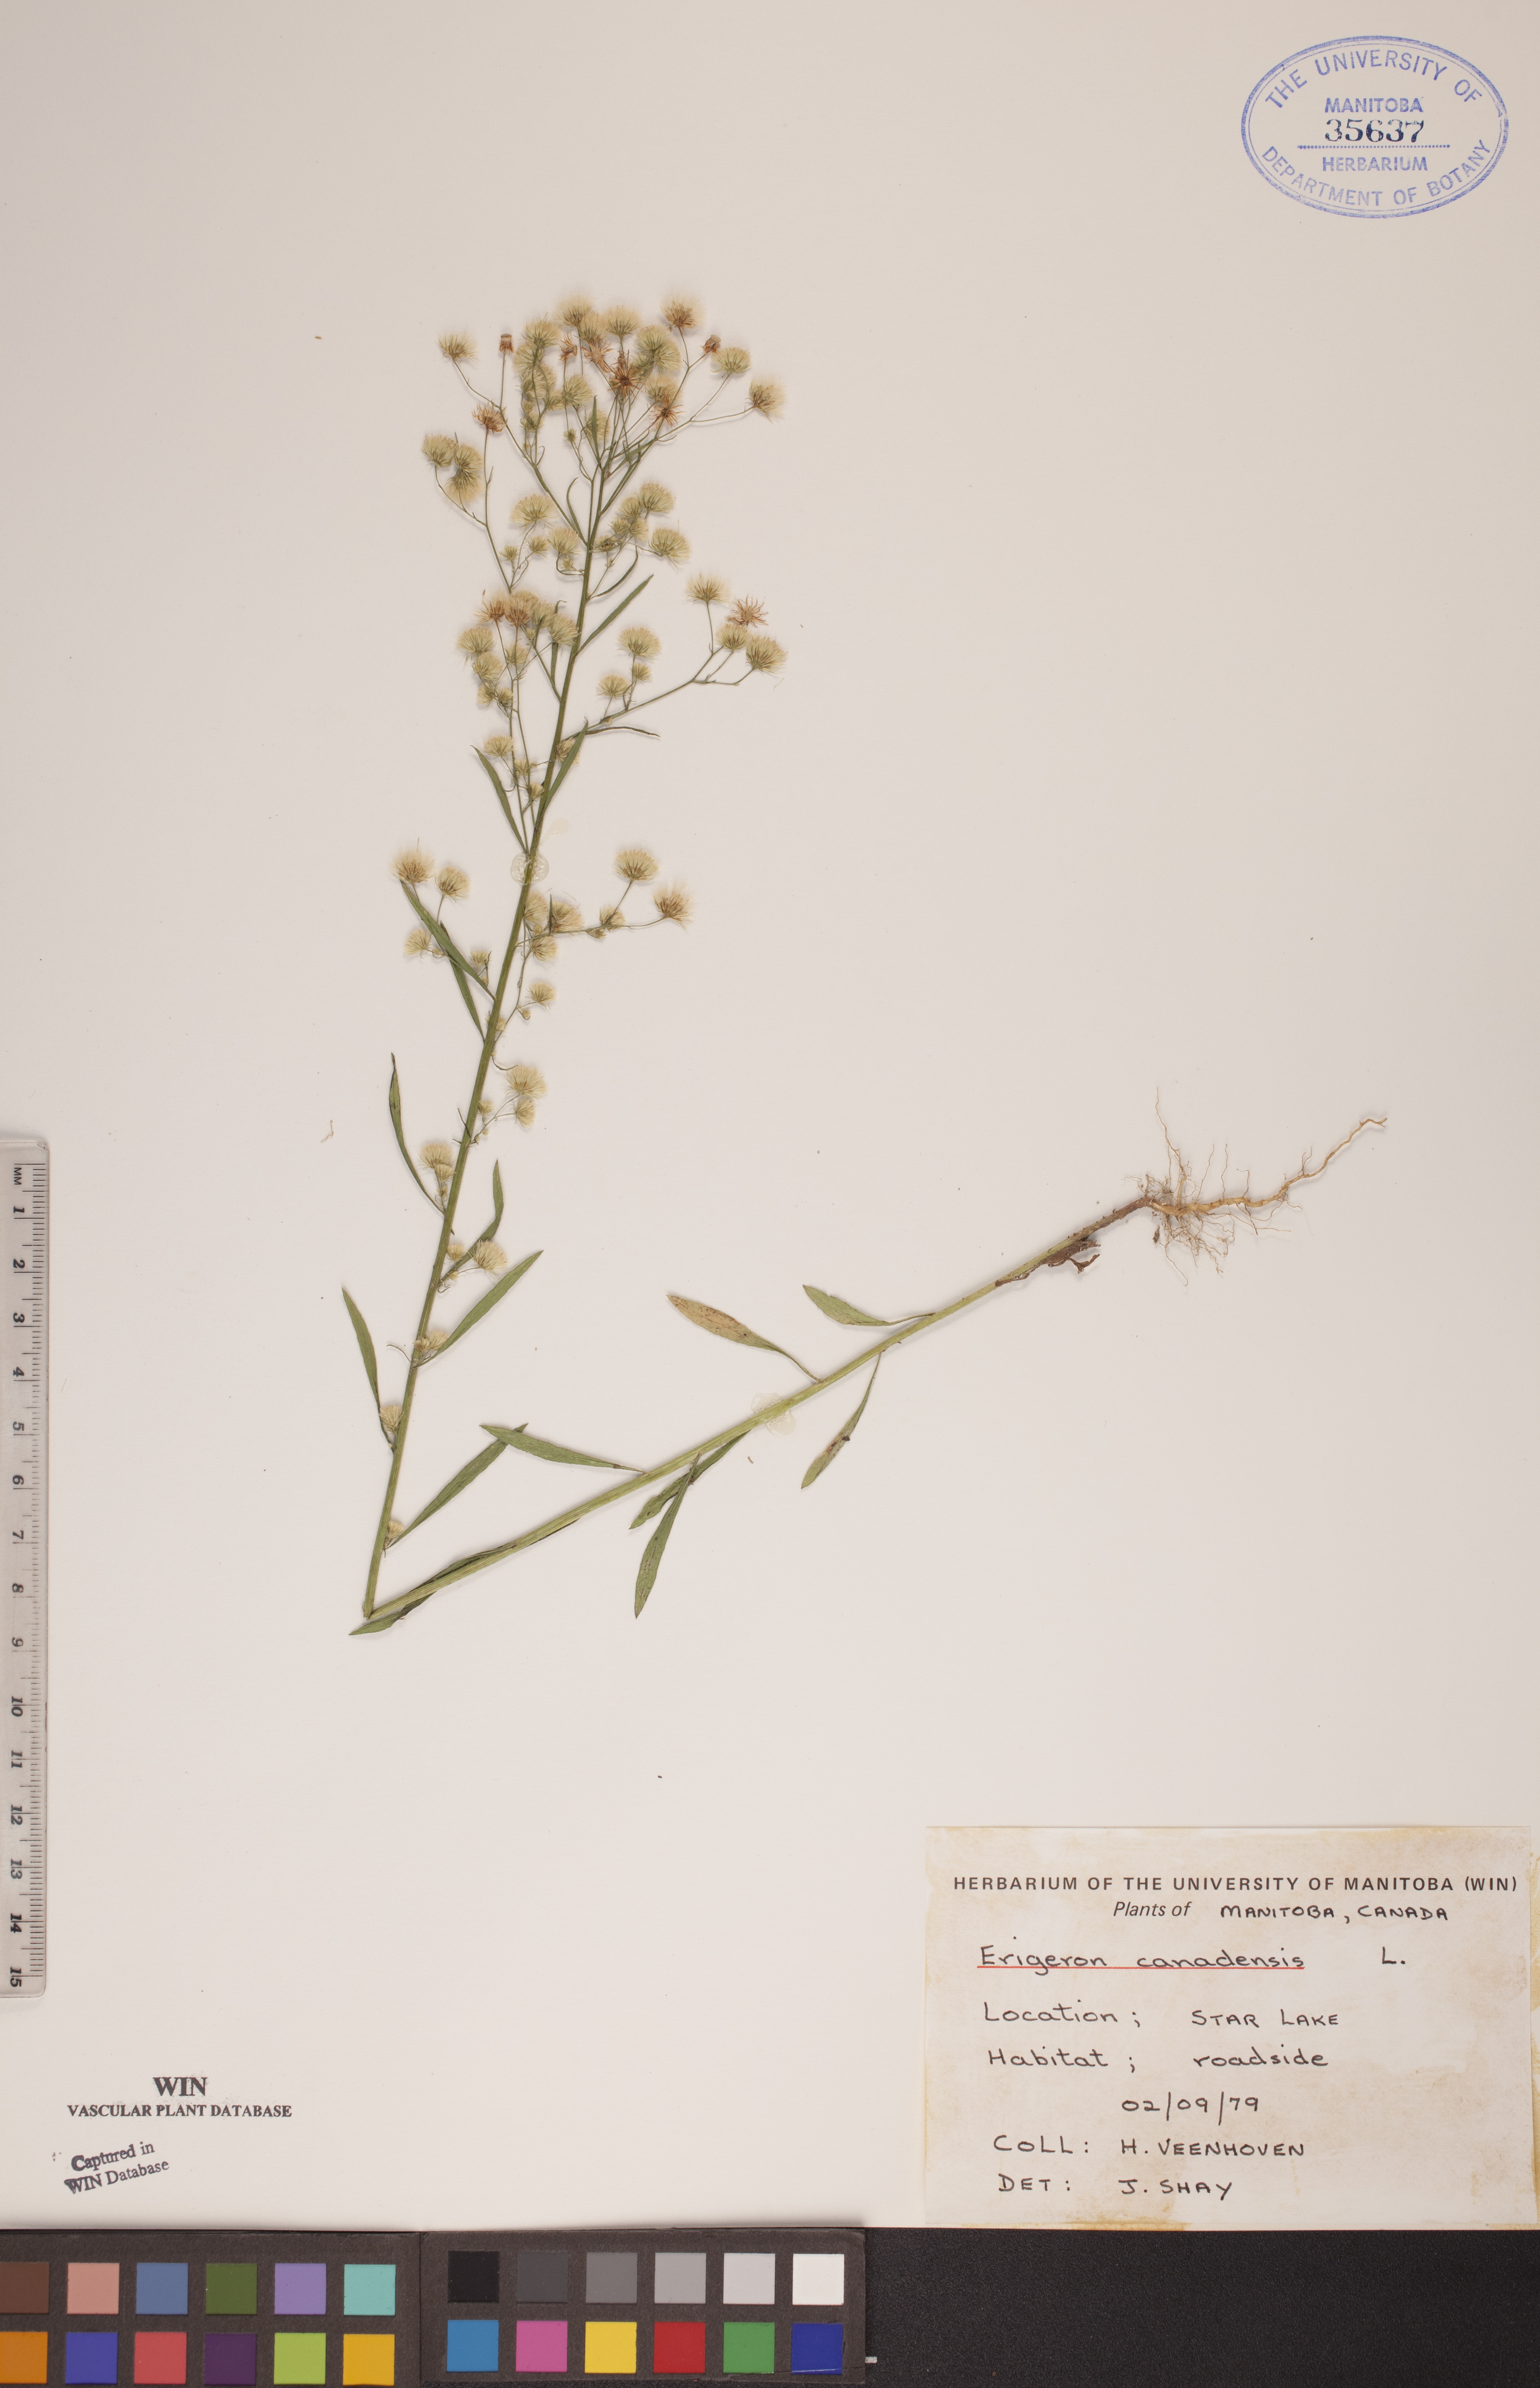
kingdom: Plantae
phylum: Tracheophyta
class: Magnoliopsida
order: Asterales
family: Asteraceae
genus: Erigeron
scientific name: Erigeron canadensis
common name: Canadian fleabane
